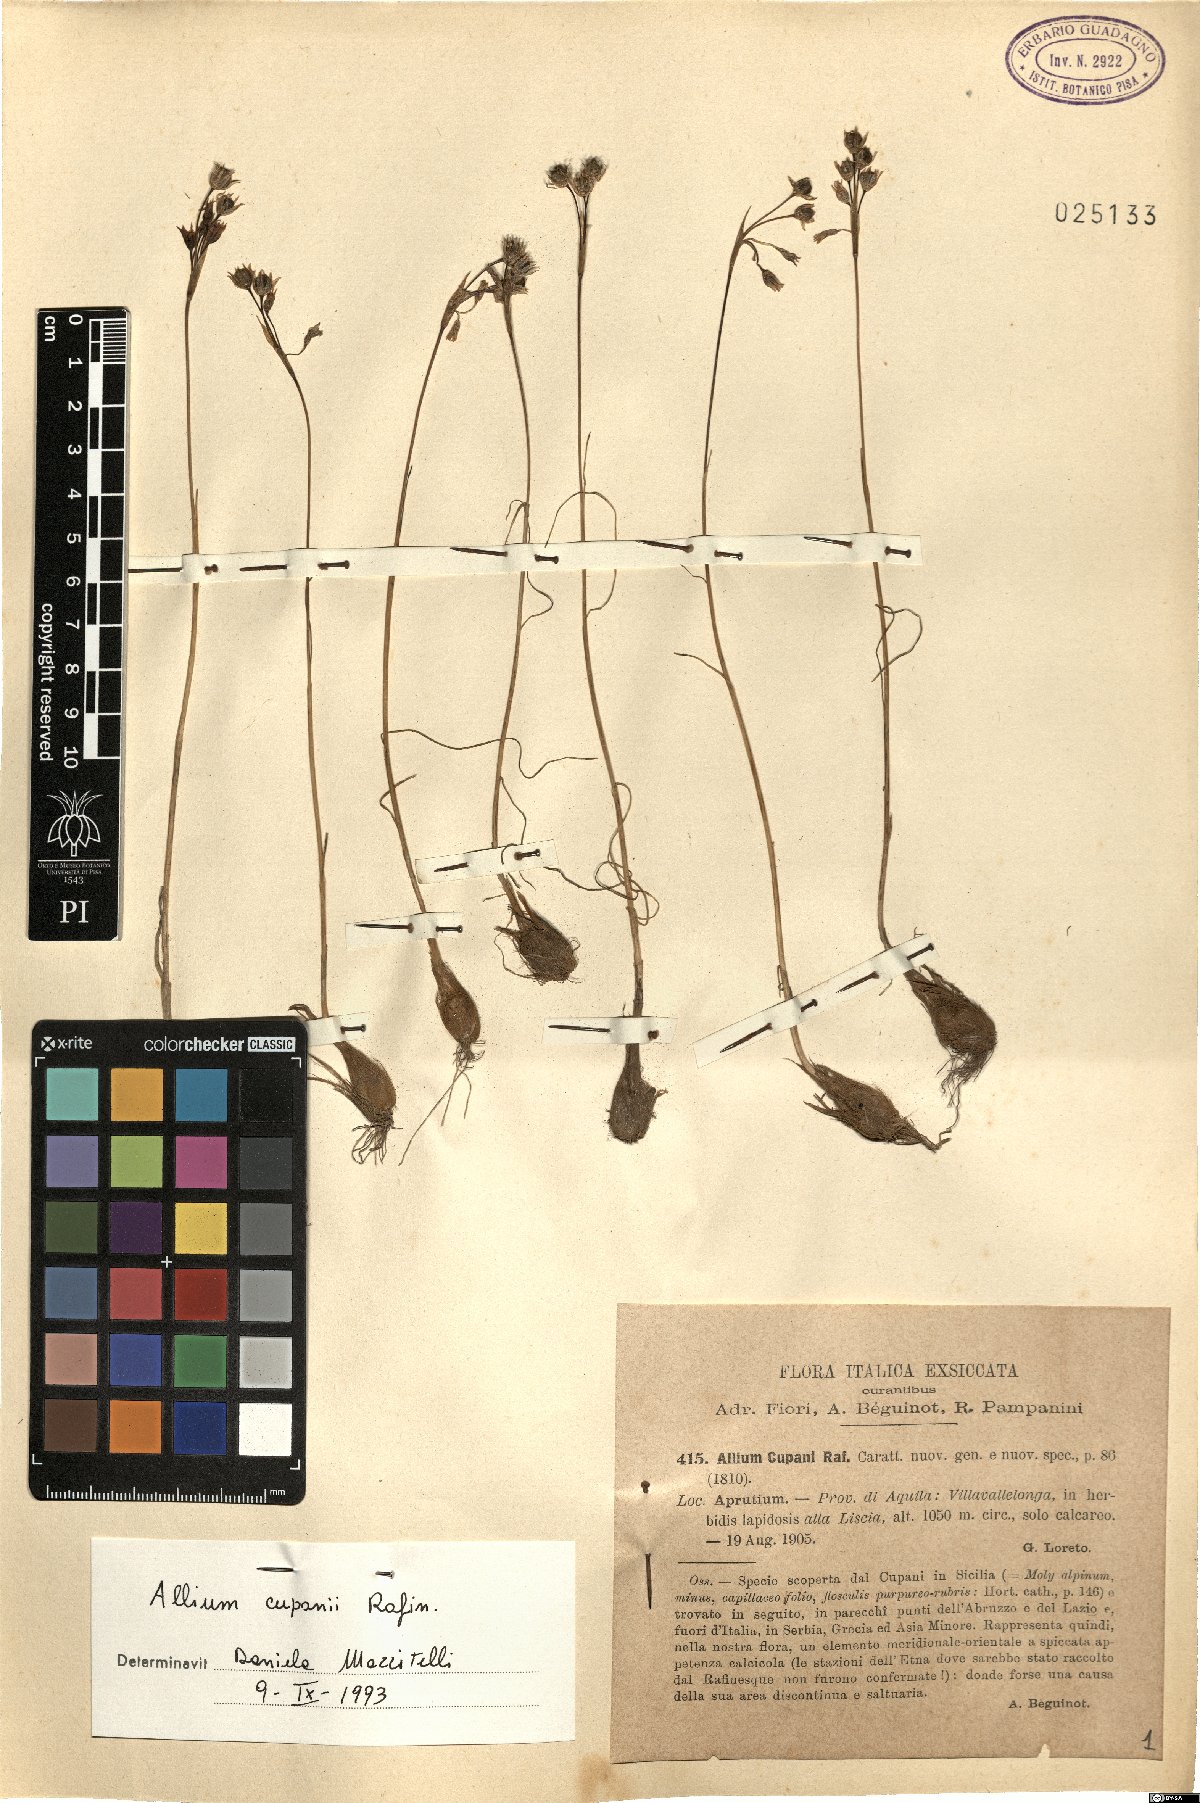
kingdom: Plantae
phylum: Tracheophyta
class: Liliopsida
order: Asparagales
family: Amaryllidaceae
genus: Allium
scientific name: Allium cupani
